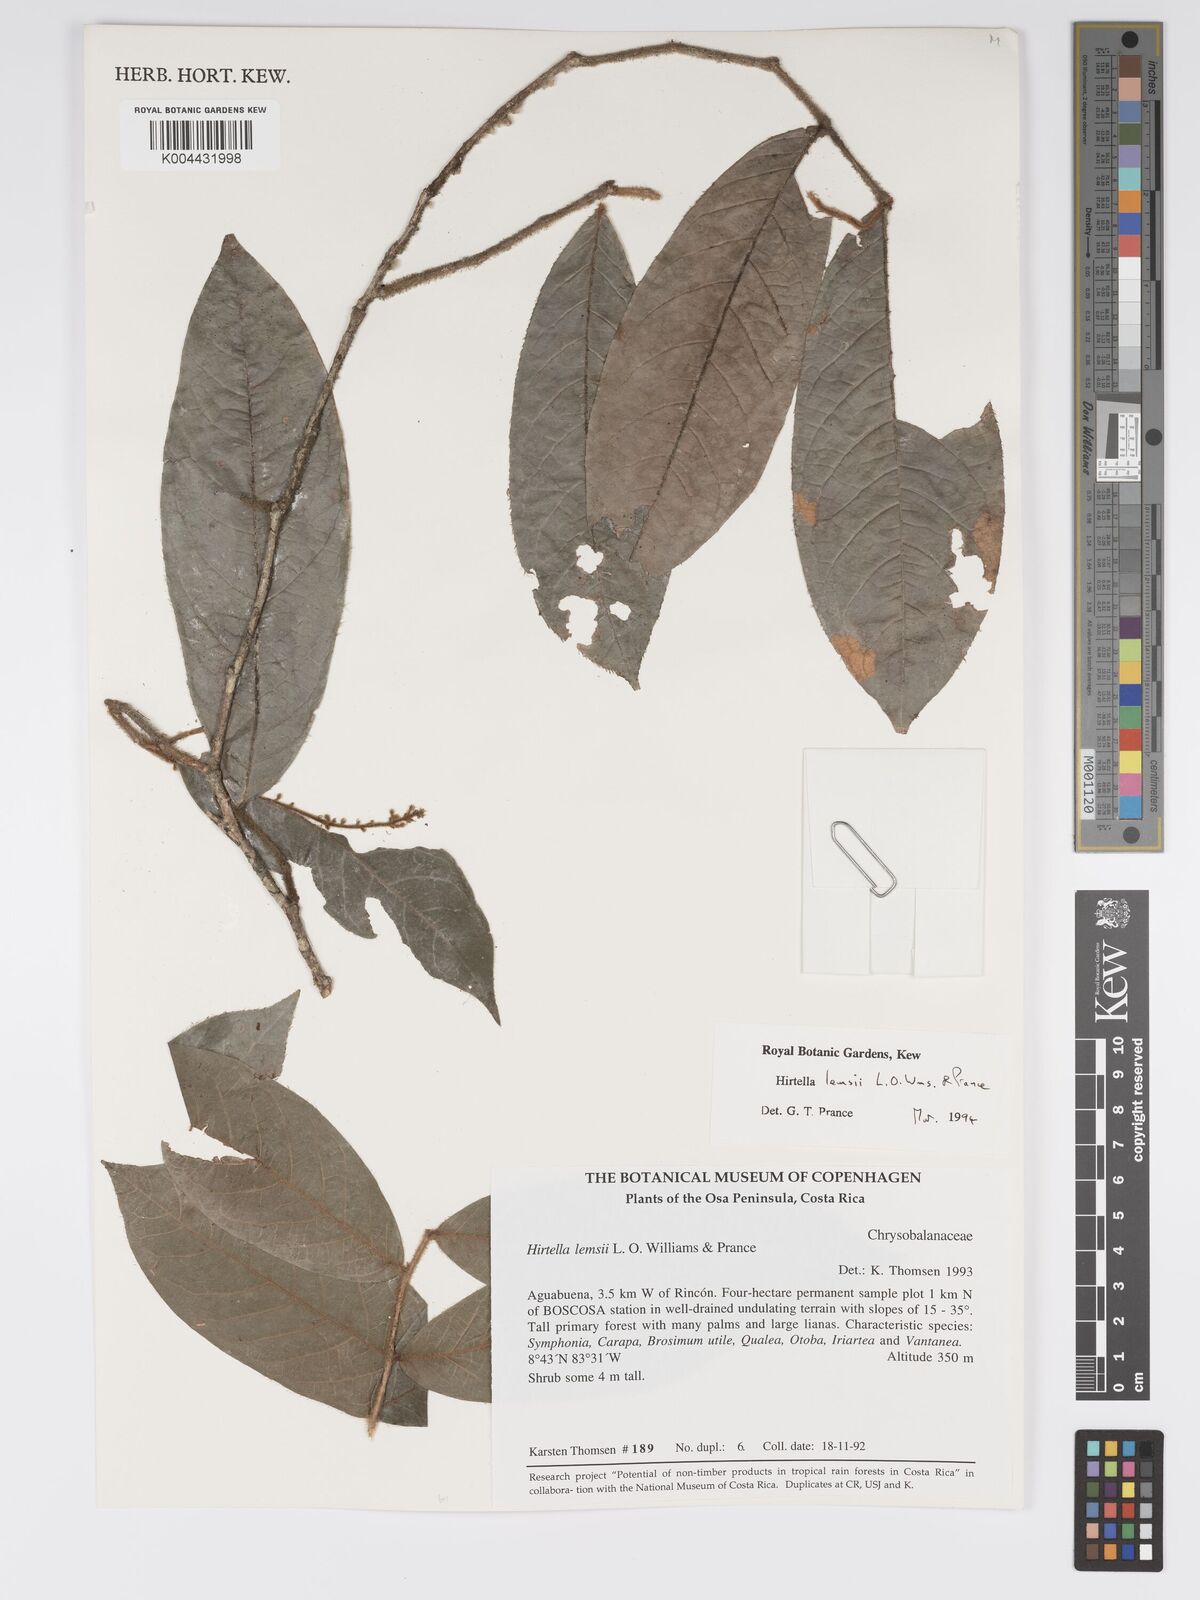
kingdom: Plantae
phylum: Tracheophyta
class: Magnoliopsida
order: Malpighiales
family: Chrysobalanaceae
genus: Hirtella
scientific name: Hirtella lemsii
